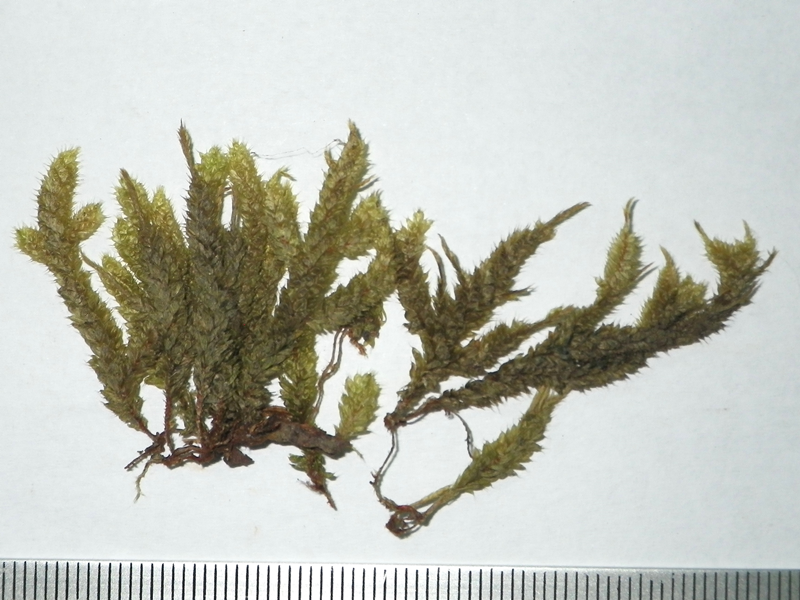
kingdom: Plantae
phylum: Bryophyta
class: Bryopsida
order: Hypnales
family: Pterobryaceae
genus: Pterobryopsis
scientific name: Pterobryopsis crassicaulis
